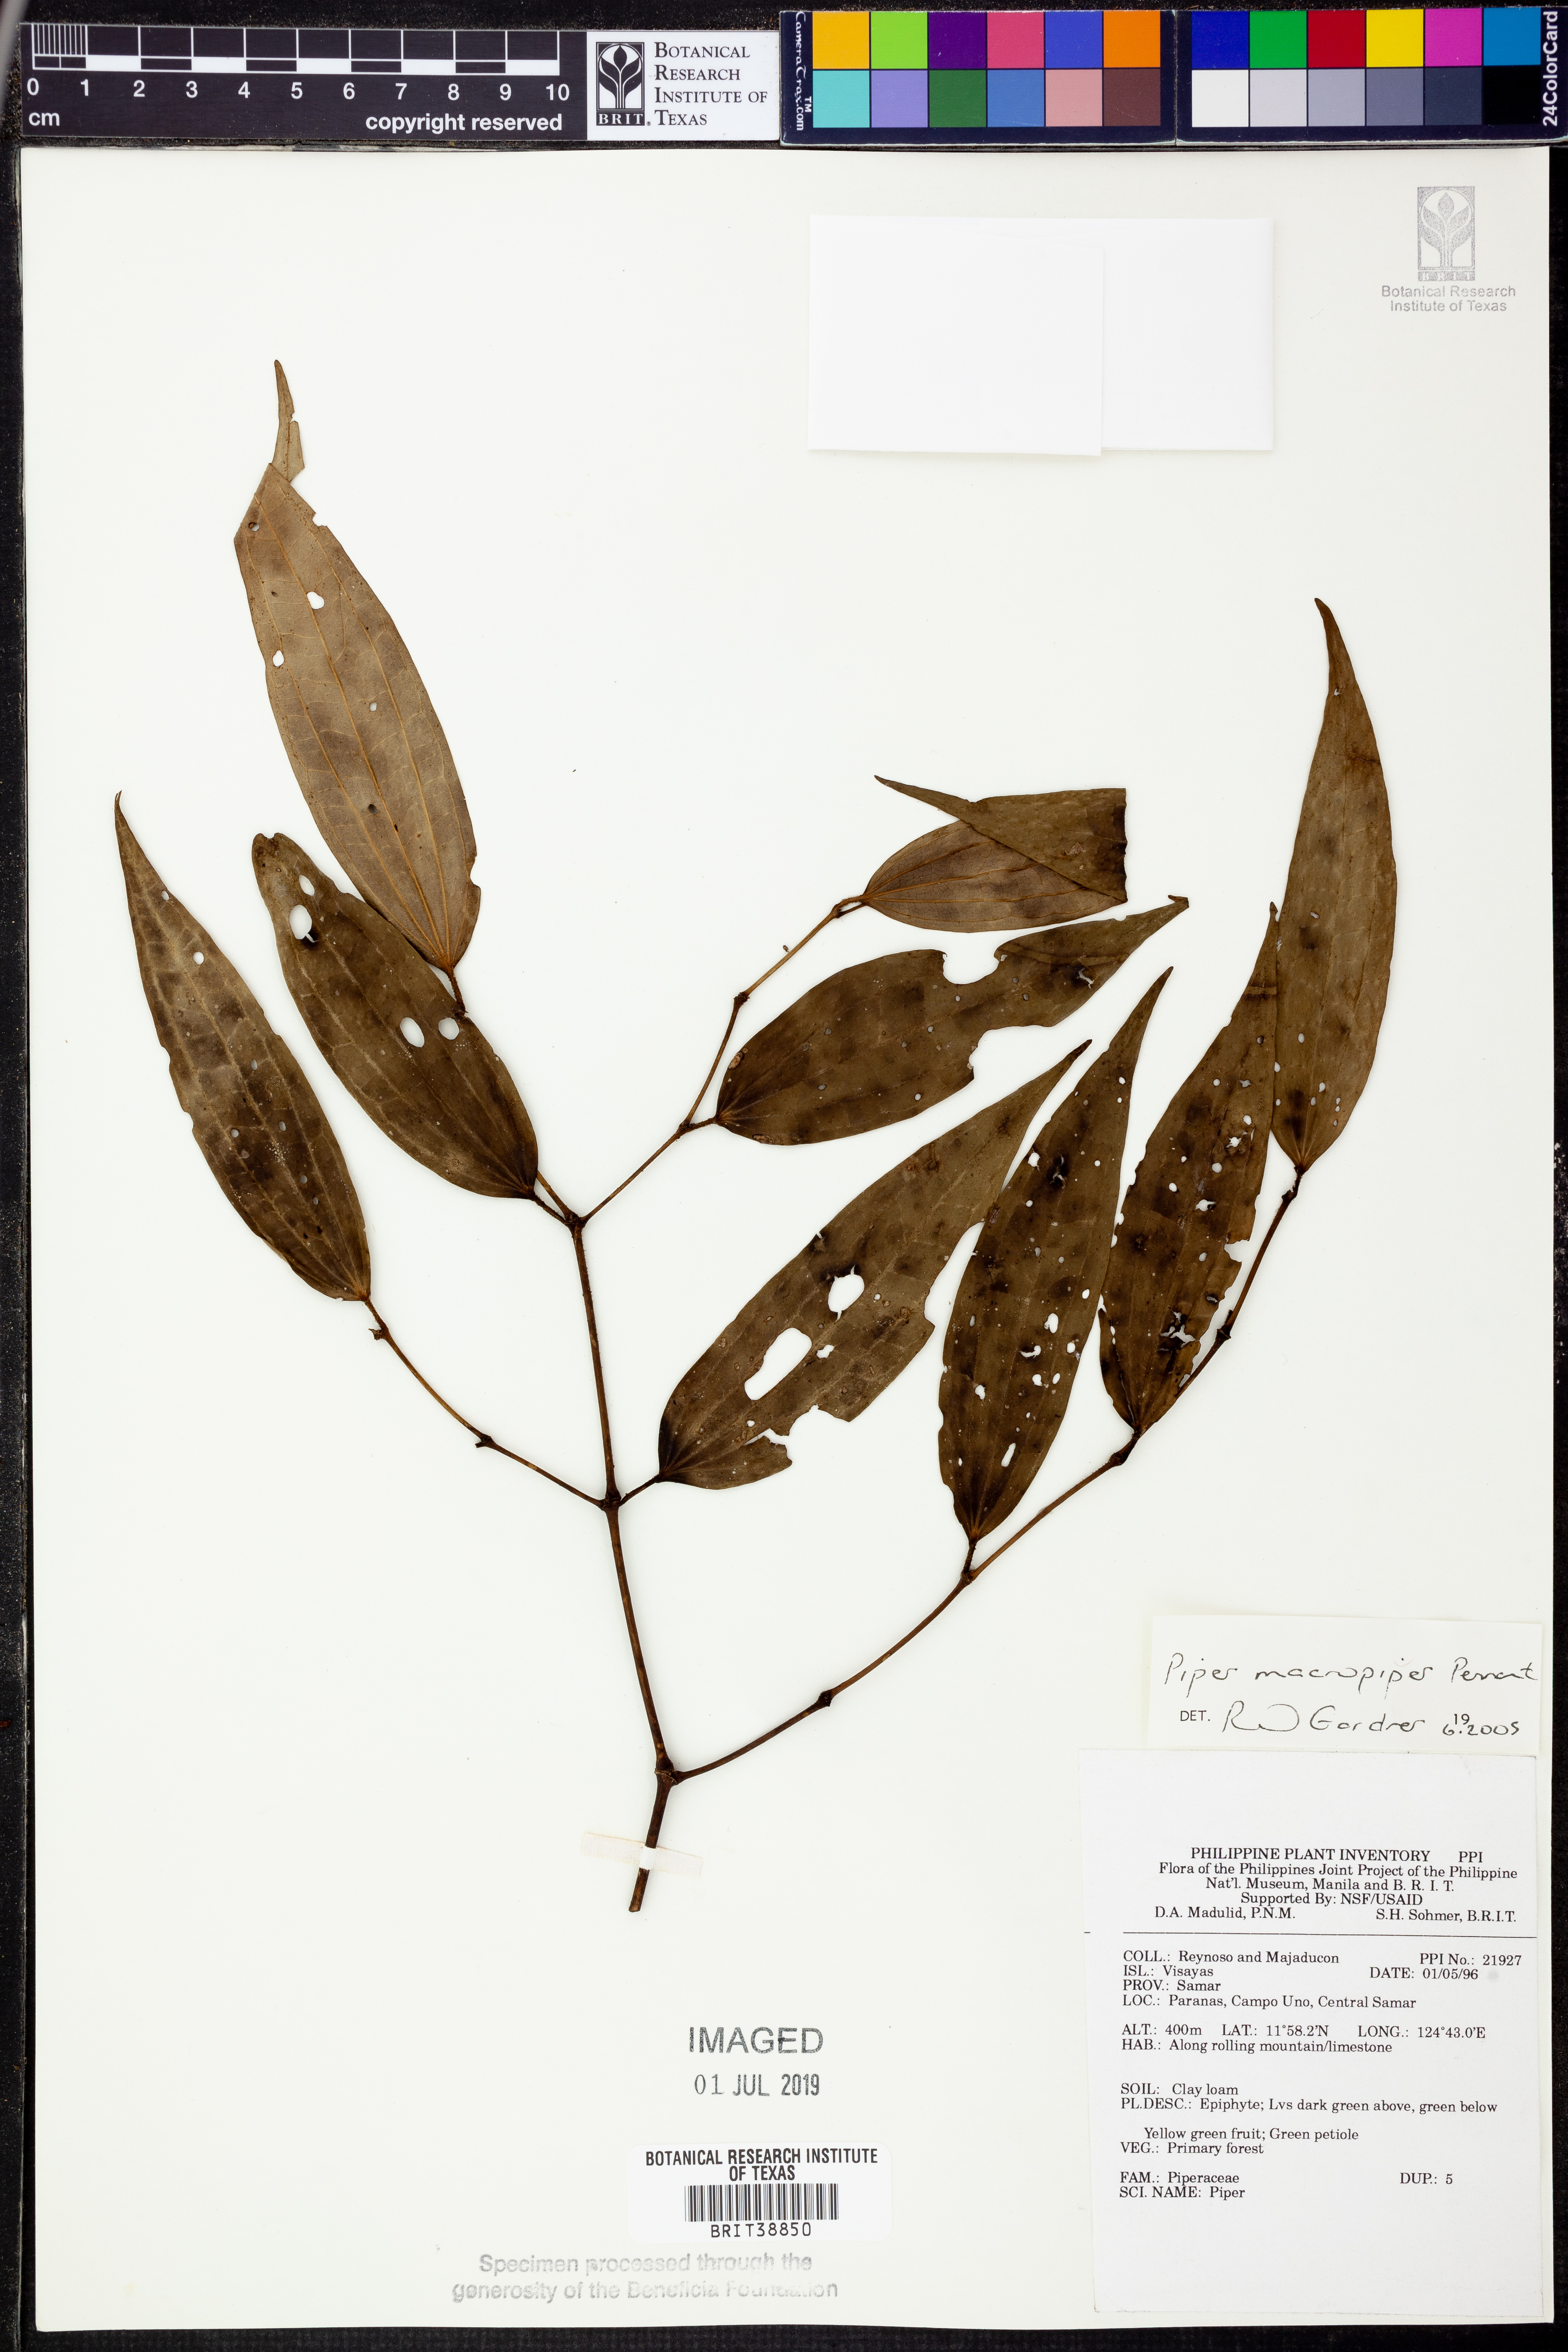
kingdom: Plantae
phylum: Tracheophyta
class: Magnoliopsida
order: Piperales
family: Piperaceae
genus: Piper
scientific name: Piper macropiper
